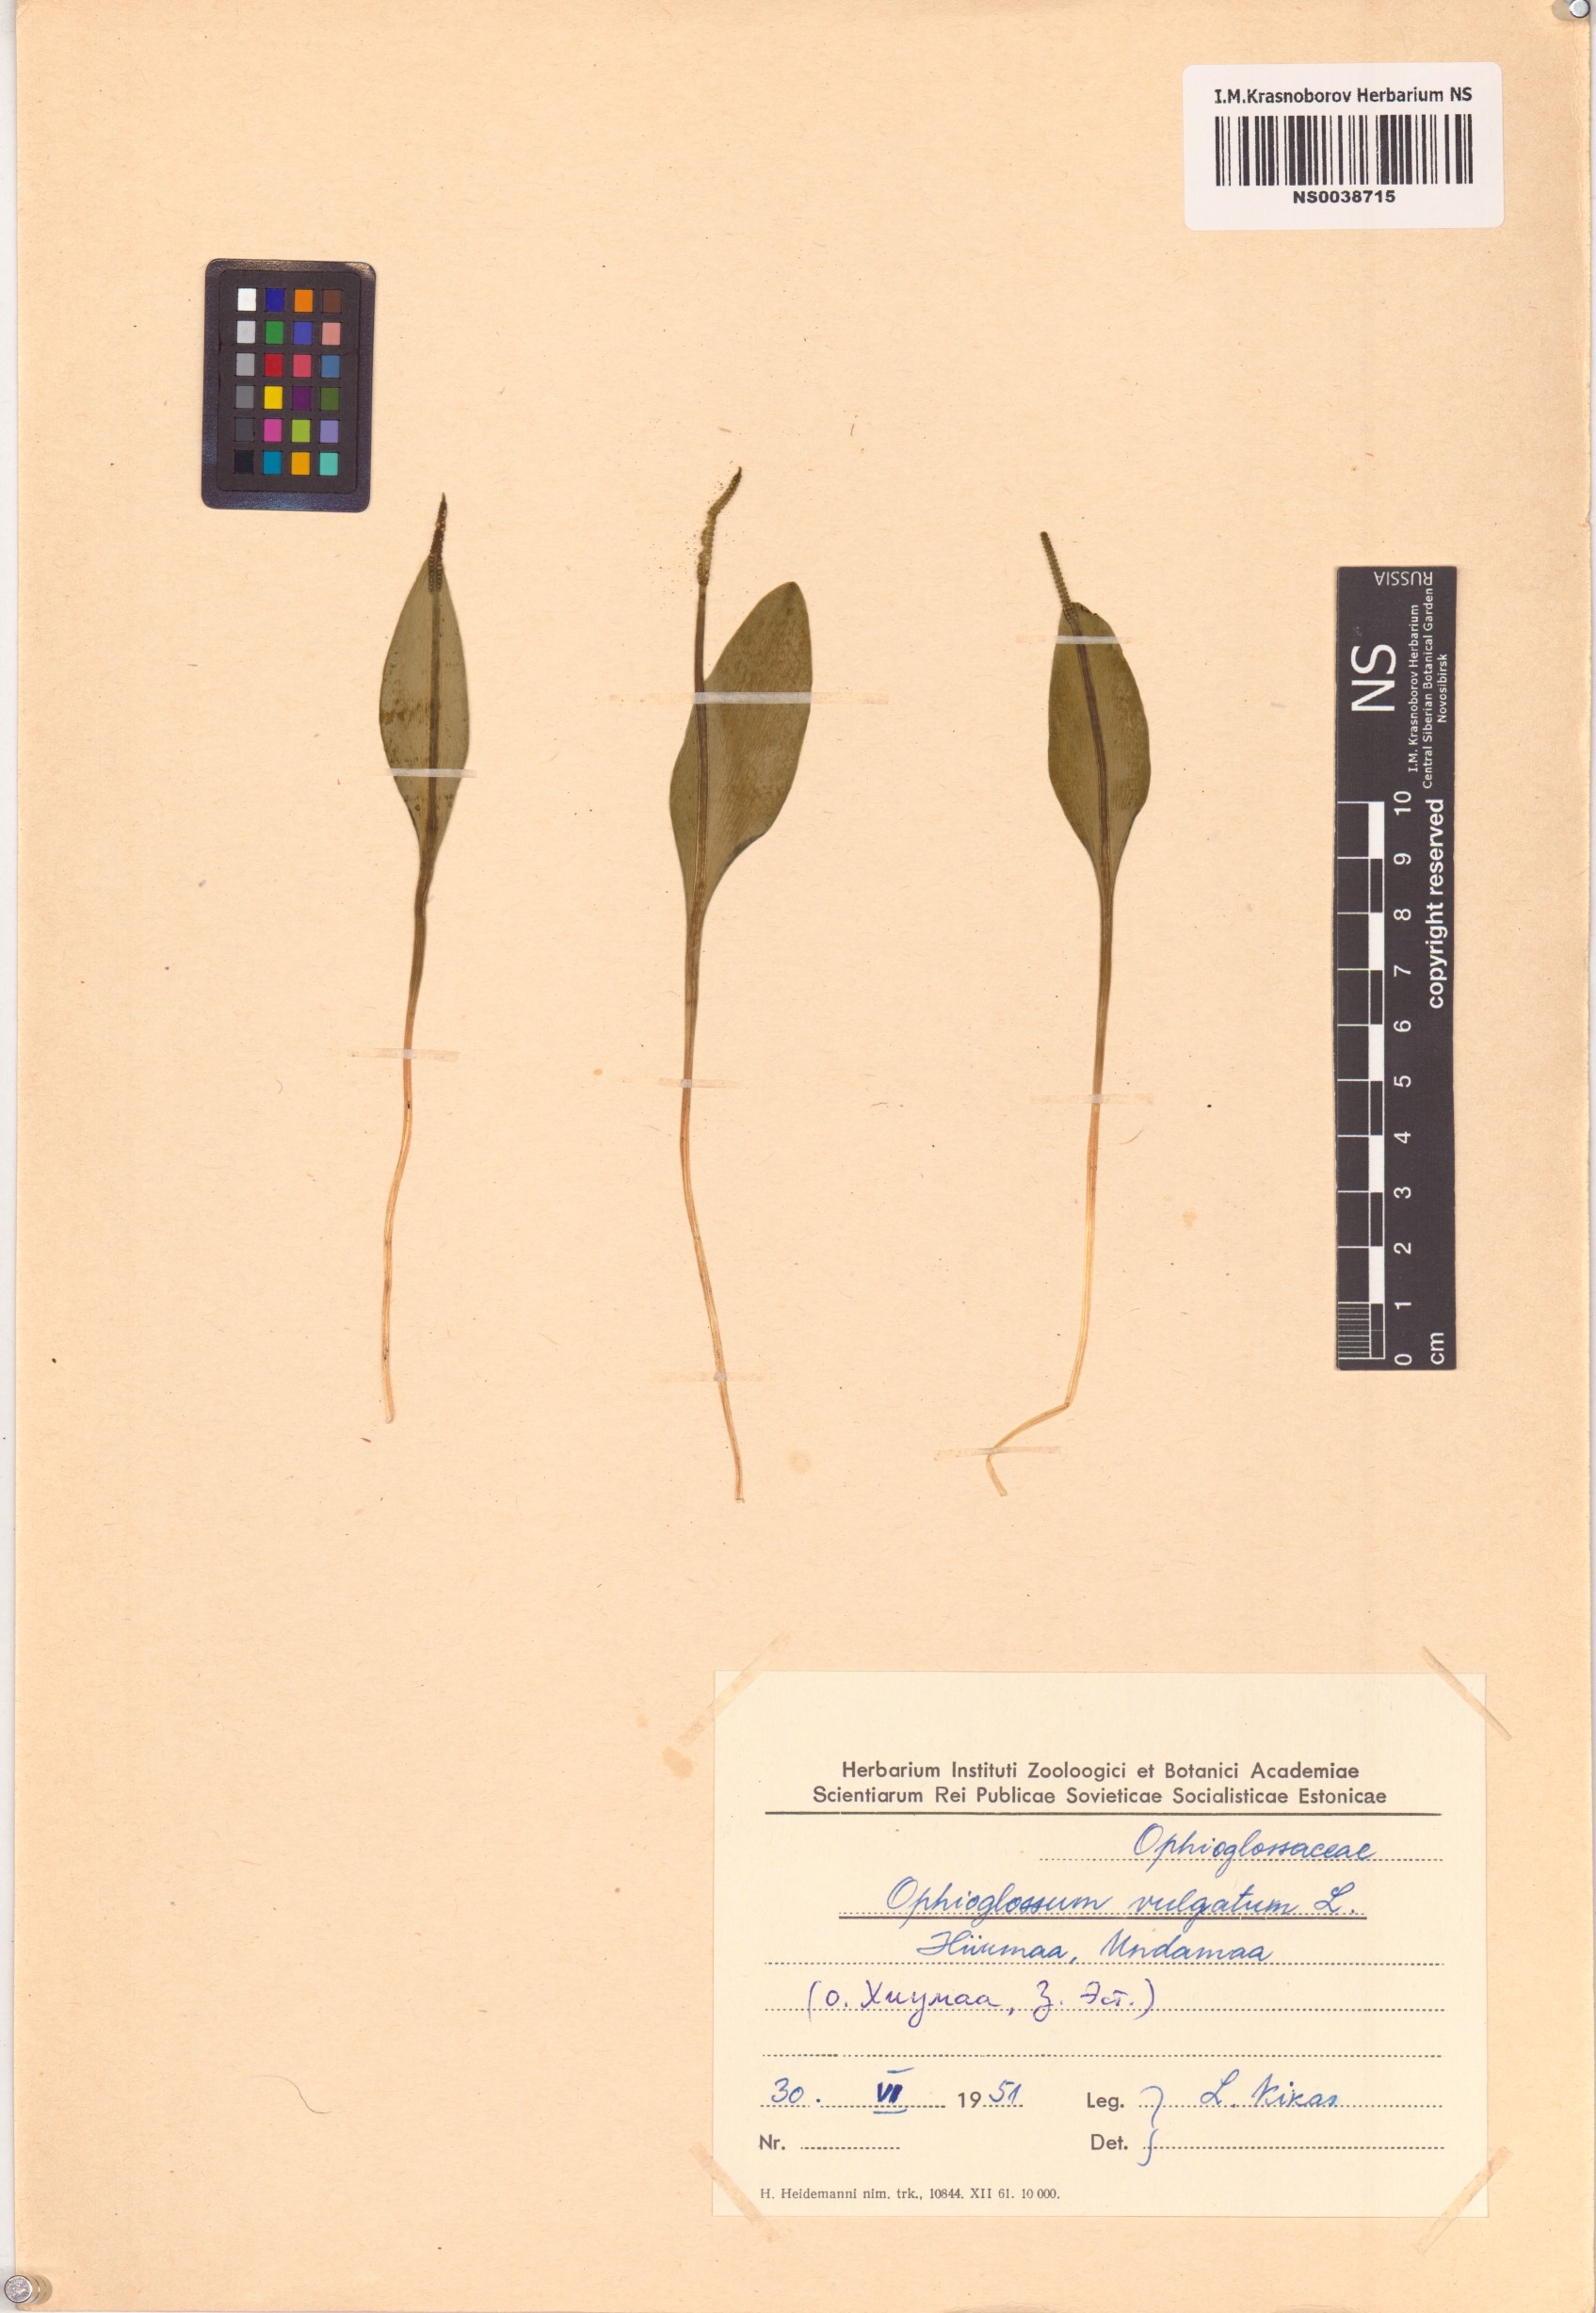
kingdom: Plantae
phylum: Tracheophyta
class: Polypodiopsida
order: Ophioglossales
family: Ophioglossaceae
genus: Ophioglossum
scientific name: Ophioglossum vulgatum
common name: Adder's-tongue
